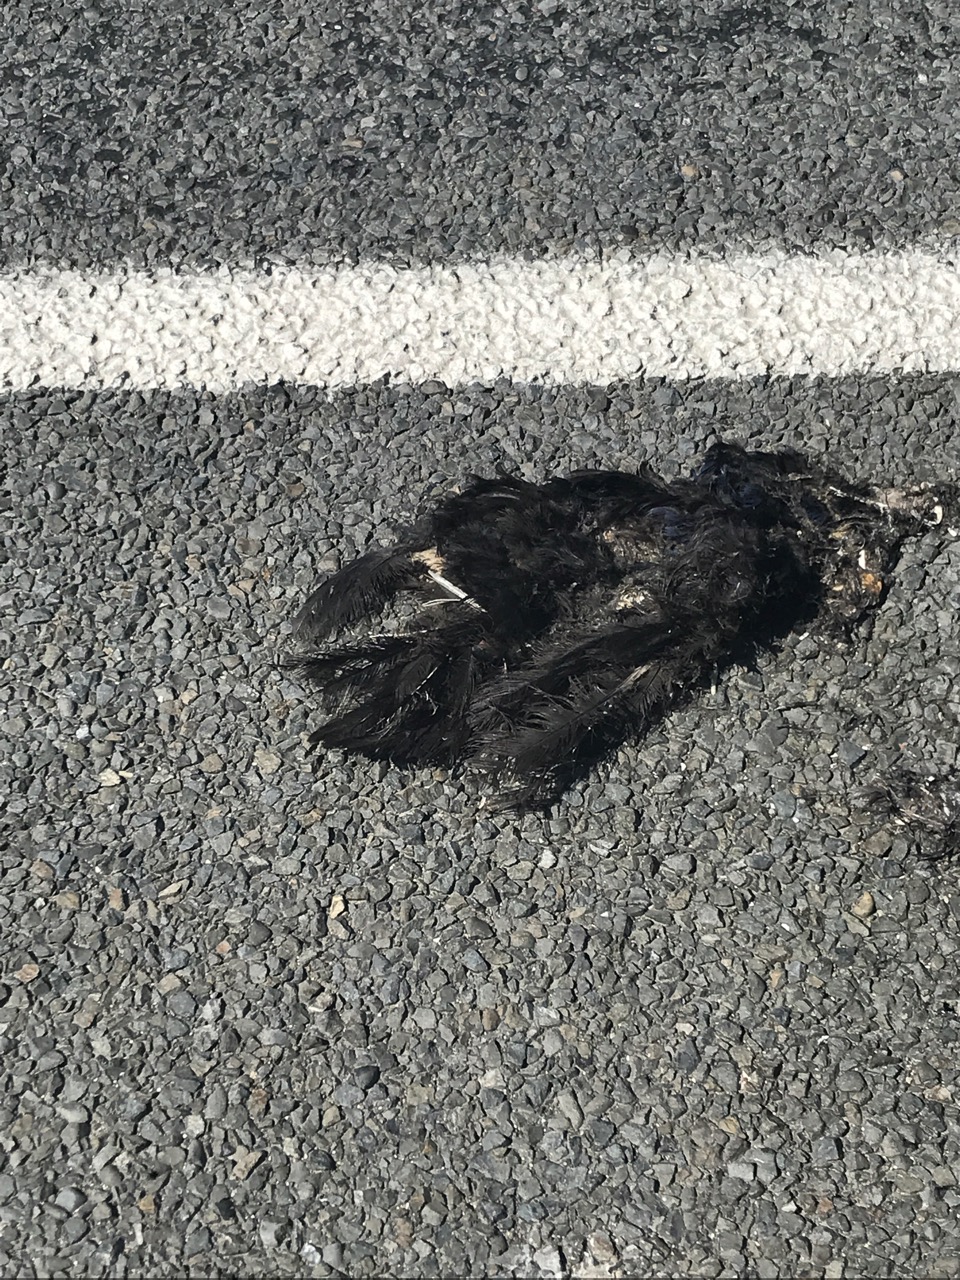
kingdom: Animalia
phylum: Chordata
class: Aves
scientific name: Aves
